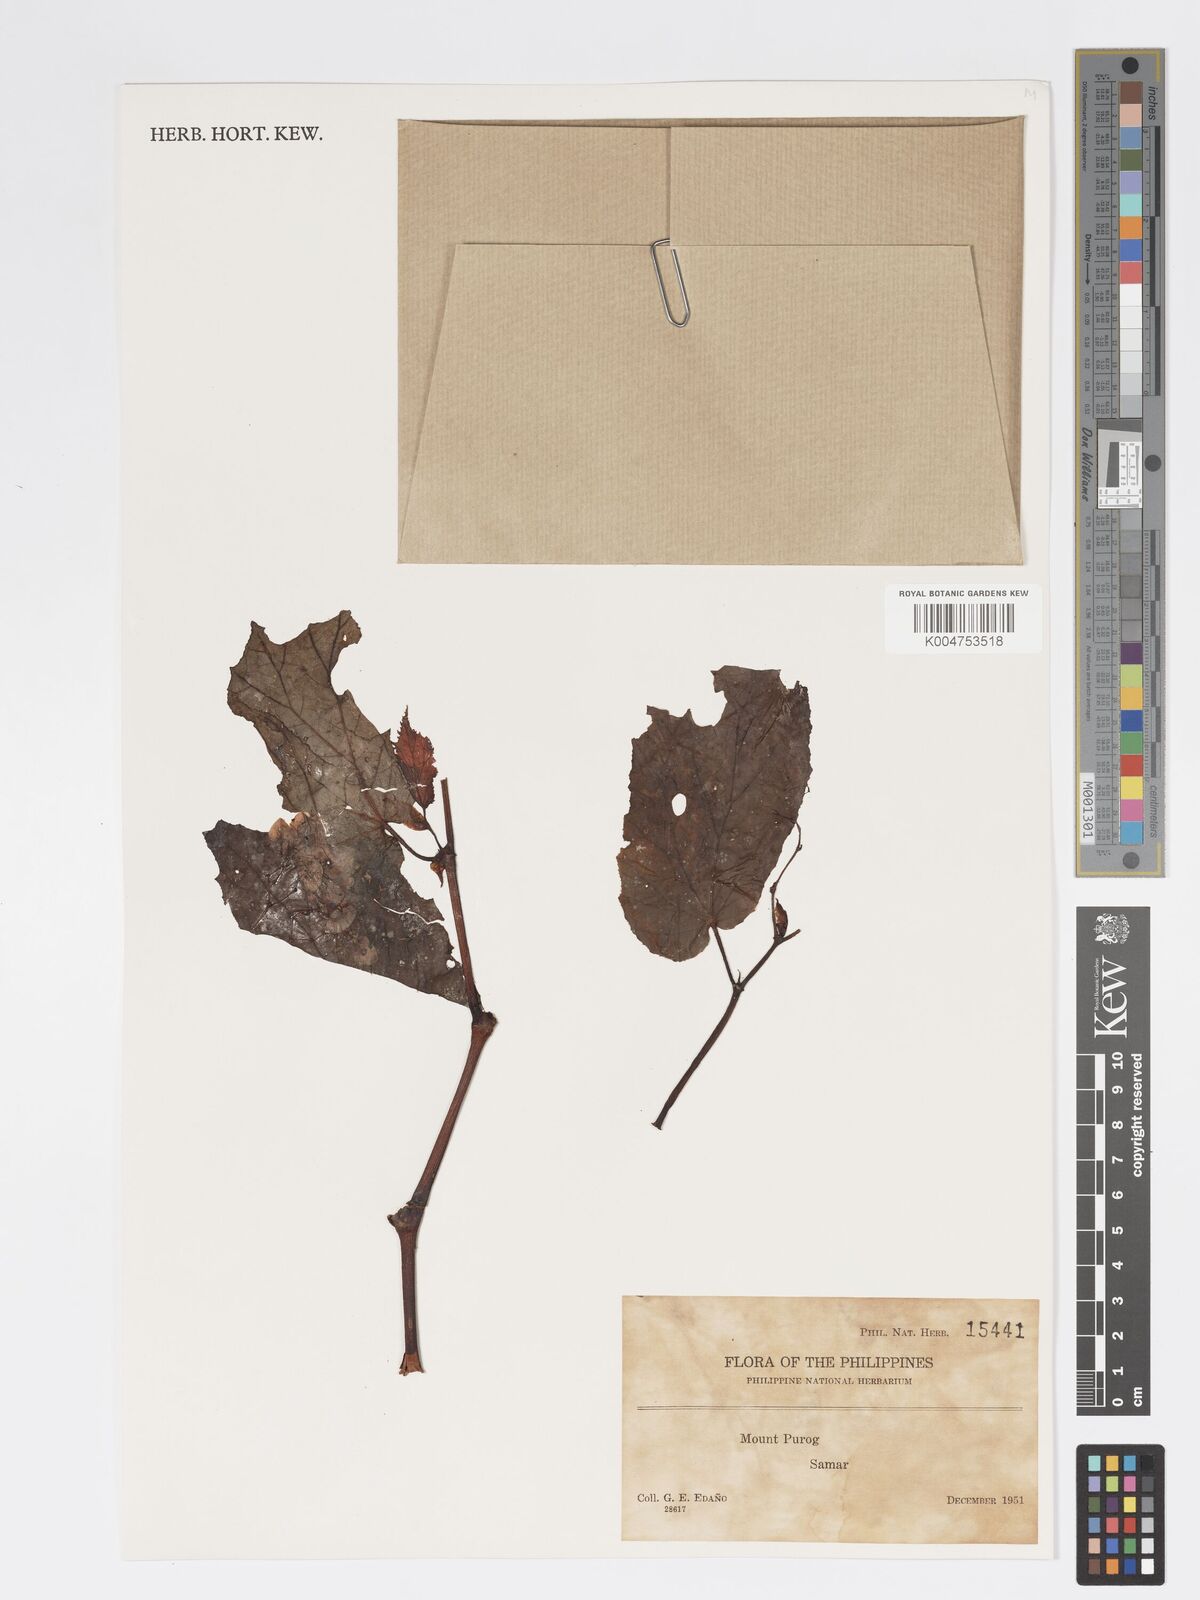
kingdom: Plantae
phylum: Tracheophyta
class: Magnoliopsida
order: Cucurbitales
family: Begoniaceae
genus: Begonia
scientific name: Begonia
